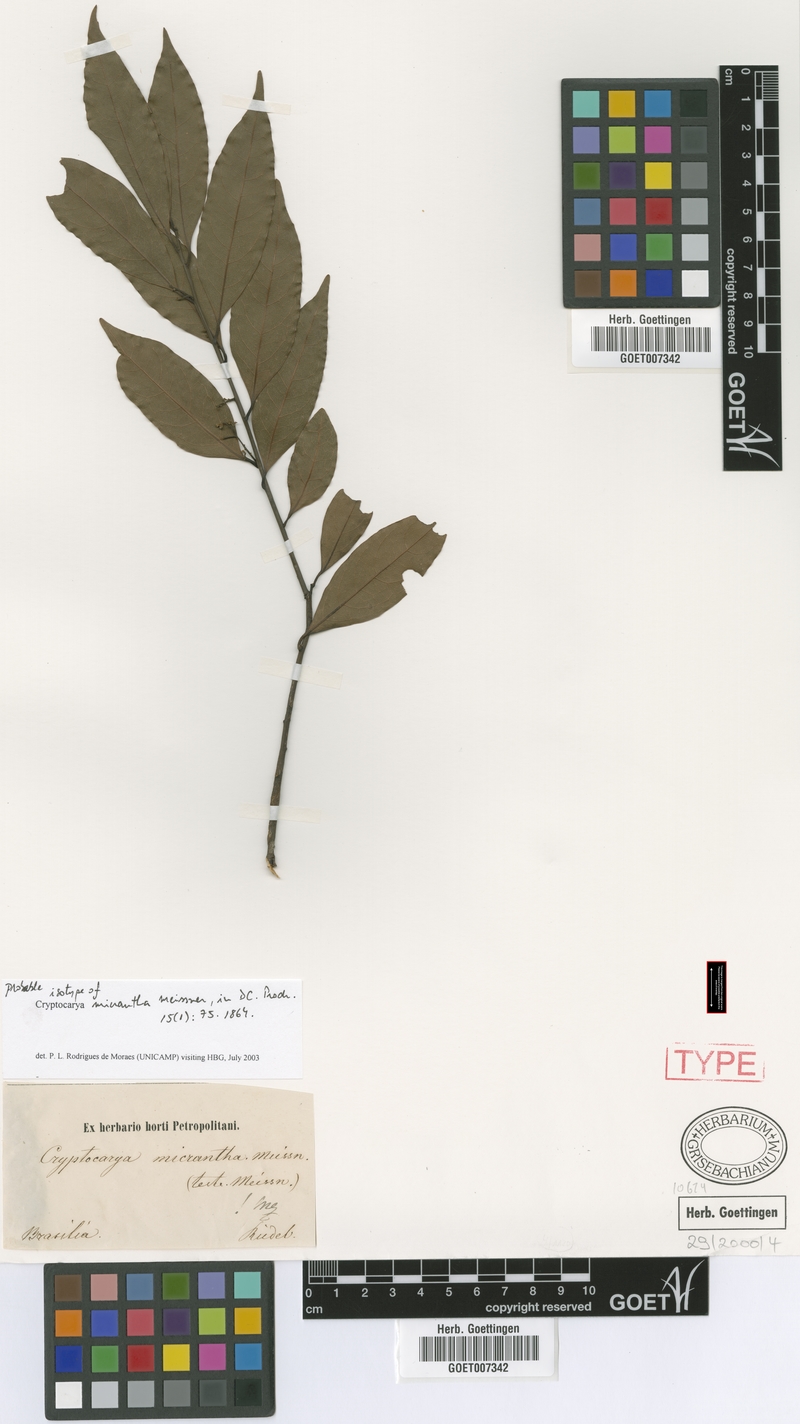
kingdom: Plantae
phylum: Tracheophyta
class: Magnoliopsida
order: Laurales
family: Lauraceae
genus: Cryptocarya
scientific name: Cryptocarya micrantha
